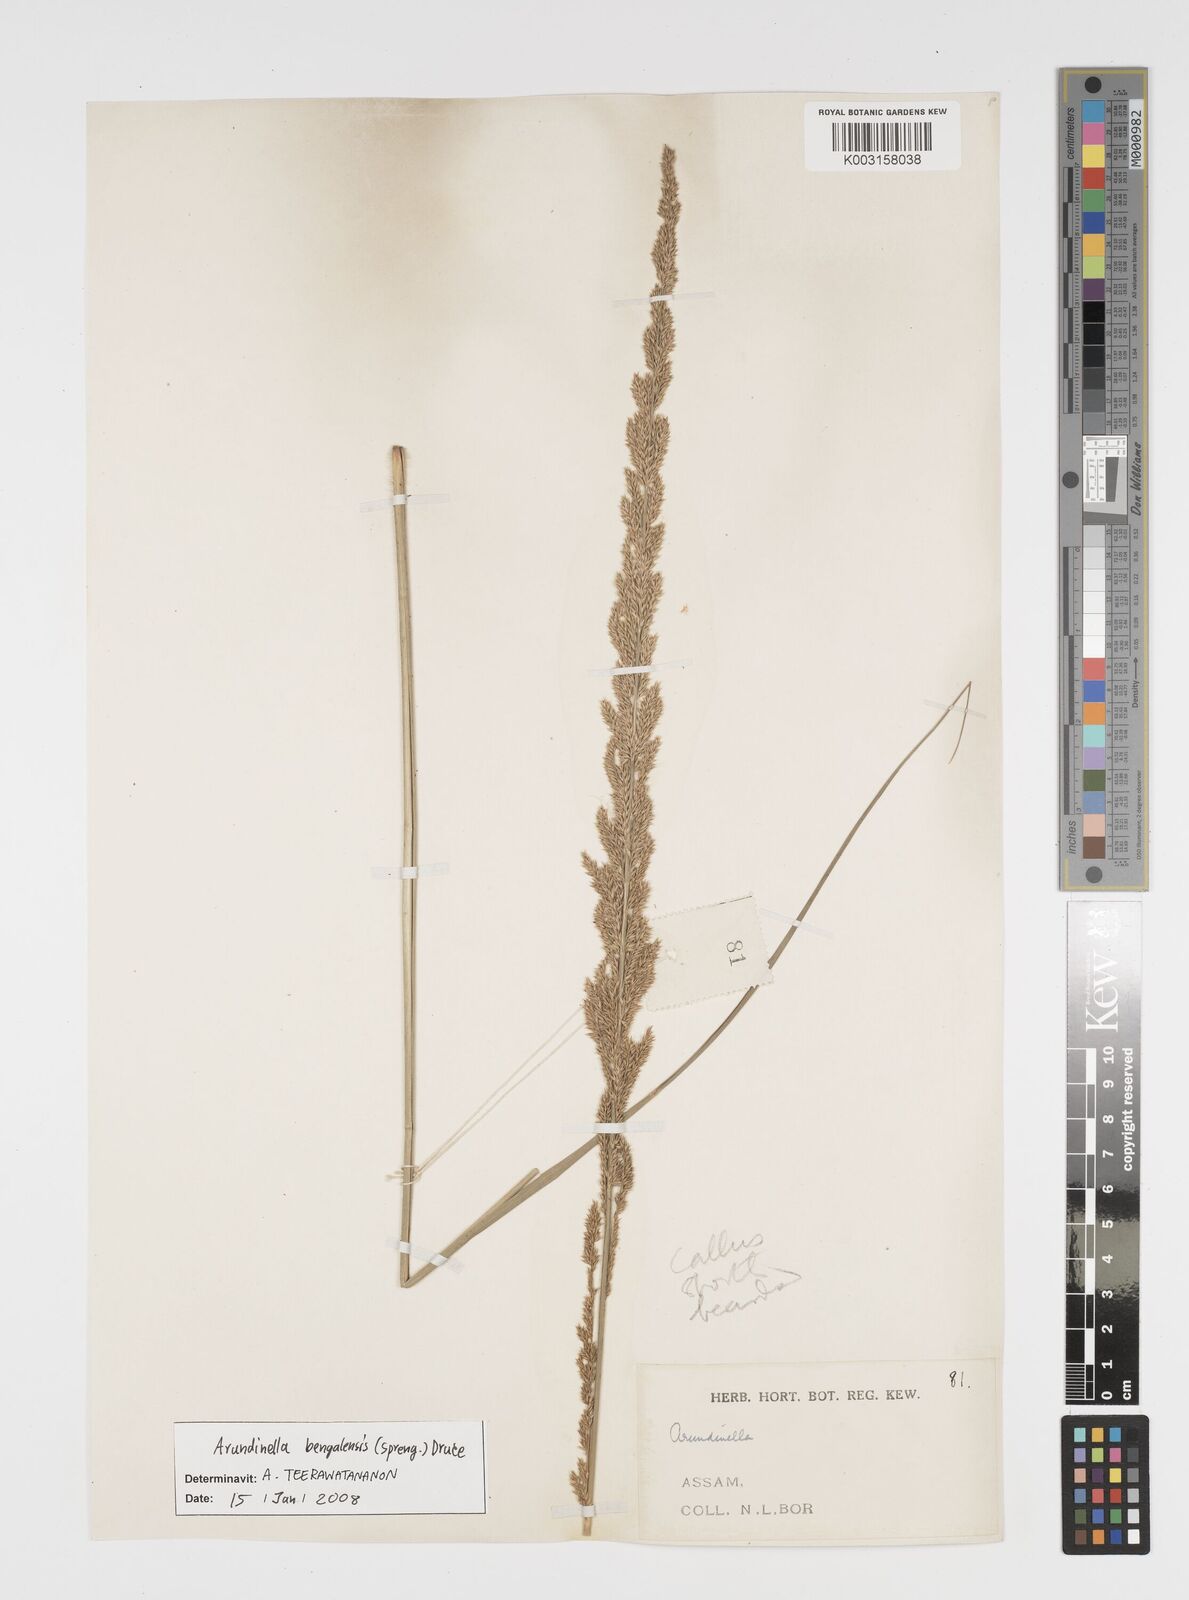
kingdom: Plantae
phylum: Tracheophyta
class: Liliopsida
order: Poales
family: Poaceae
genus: Arundinella
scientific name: Arundinella bengalensis
